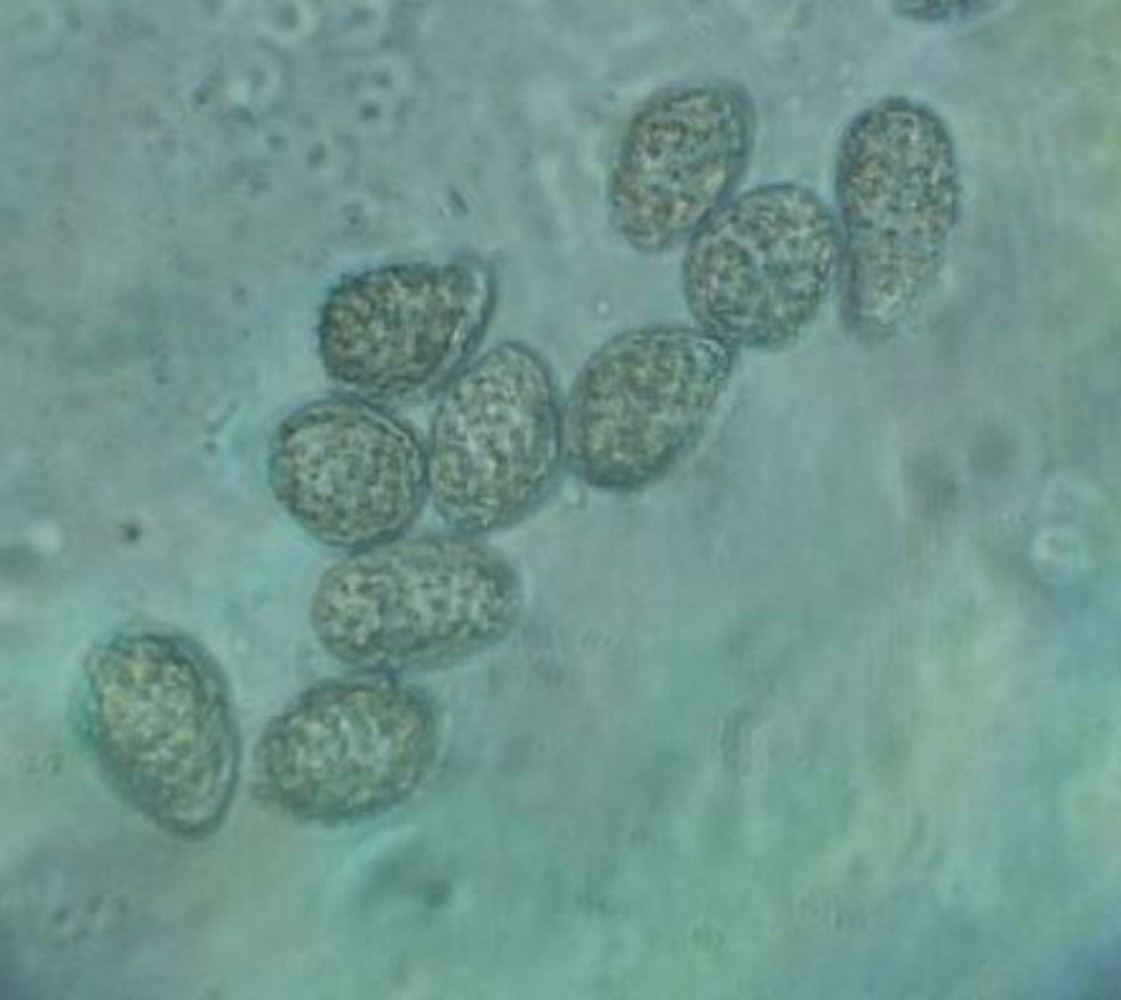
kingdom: Fungi
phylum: Basidiomycota
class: Pucciniomycetes
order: Pucciniales
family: Pucciniastraceae
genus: Pucciniastrum
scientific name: Pucciniastrum circaeae
